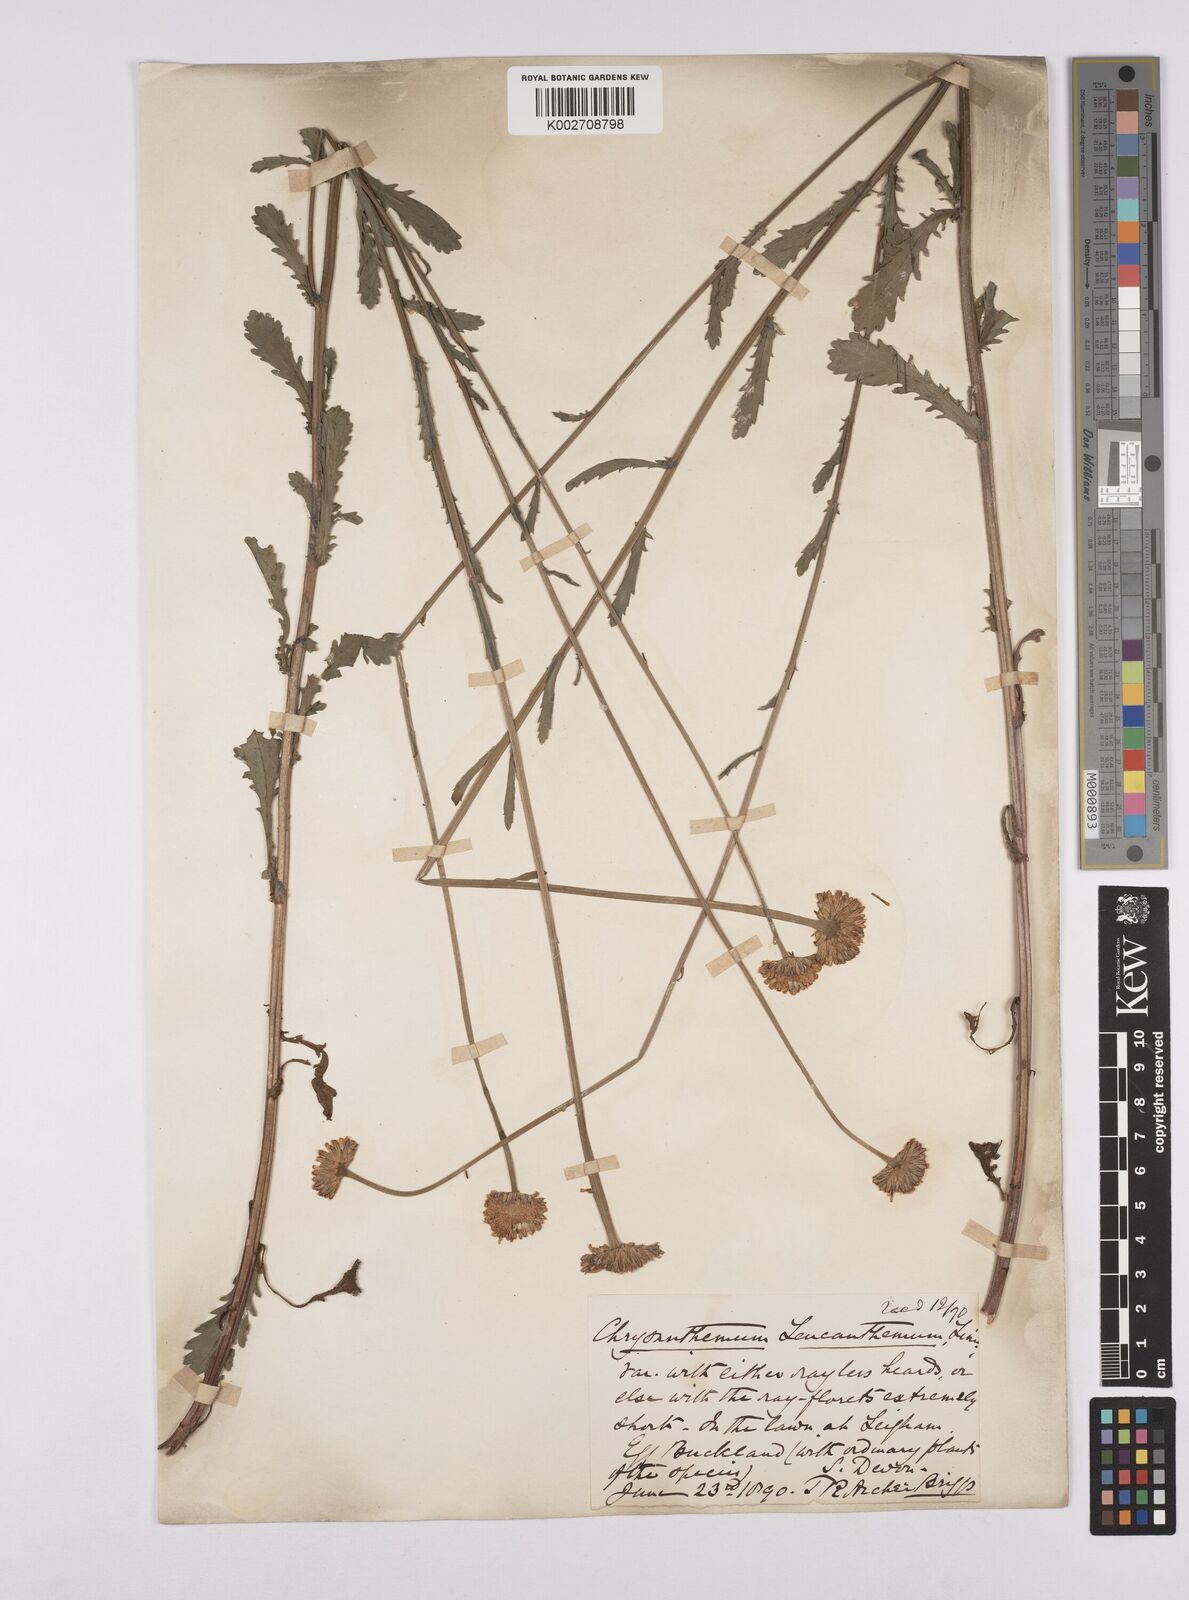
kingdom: Plantae
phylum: Tracheophyta
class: Magnoliopsida
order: Asterales
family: Asteraceae
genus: Leucanthemum
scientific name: Leucanthemum vulgare
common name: Oxeye daisy
